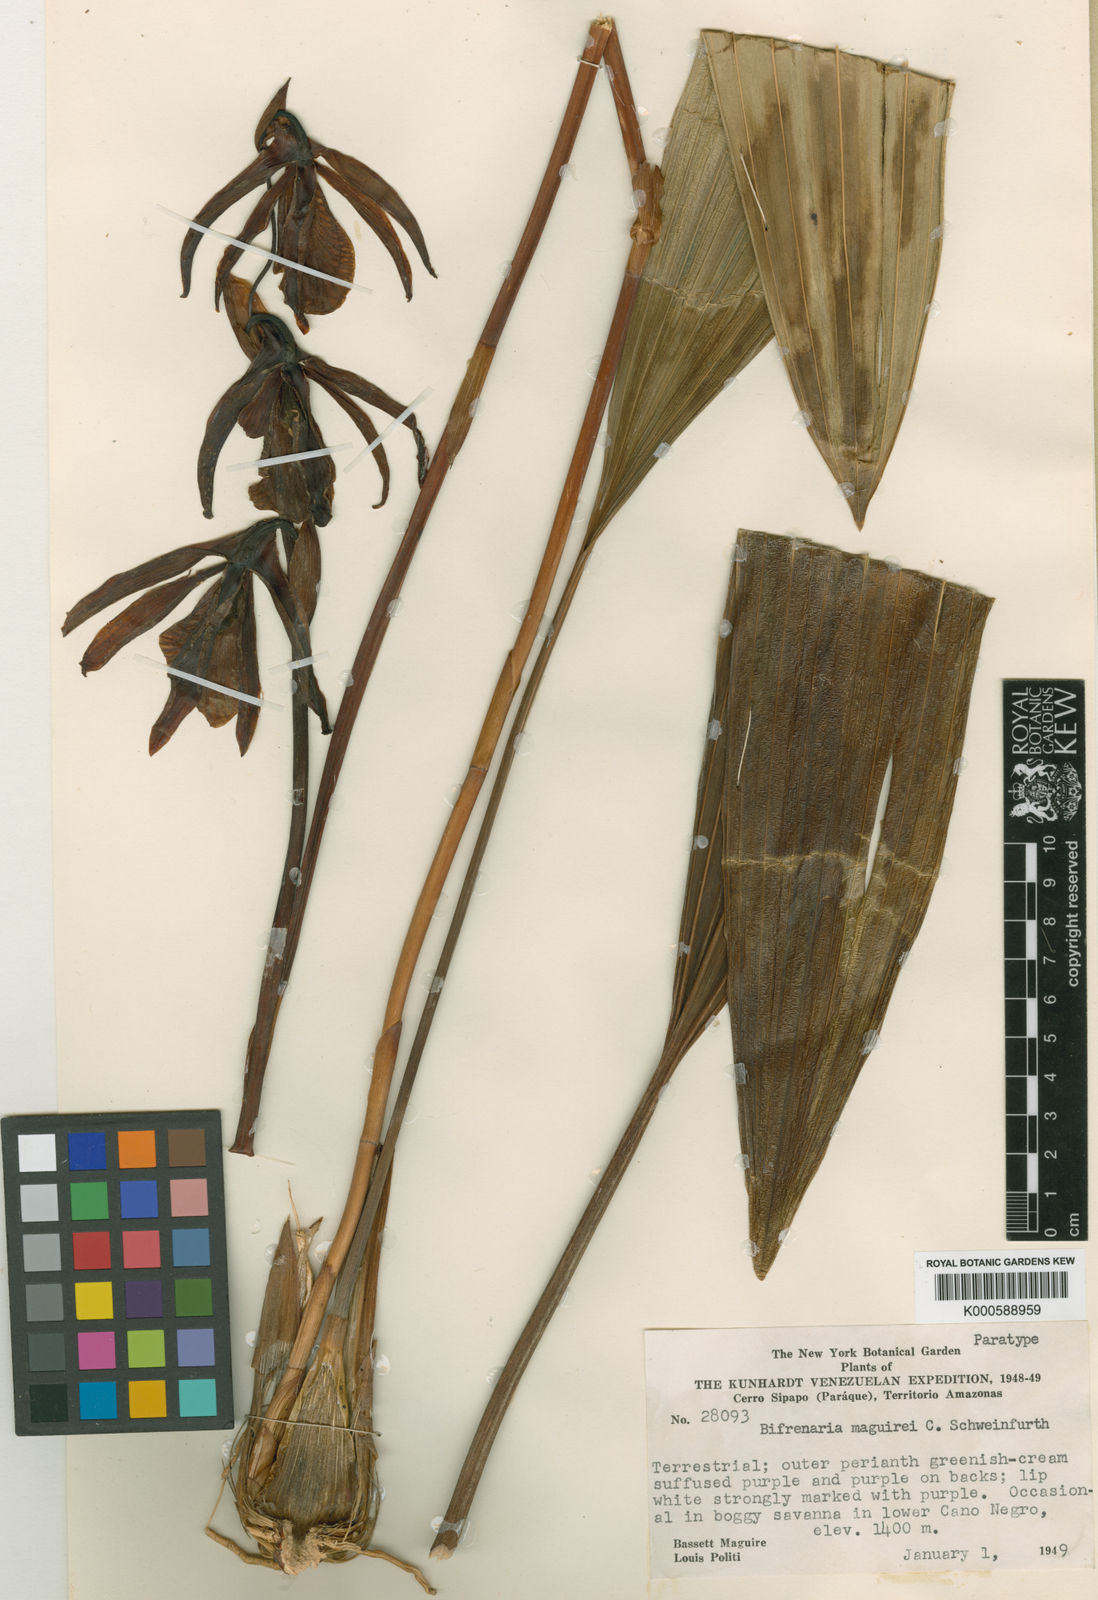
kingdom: Plantae
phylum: Tracheophyta
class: Liliopsida
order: Asparagales
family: Orchidaceae
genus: Guanchezia
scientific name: Guanchezia maguirei
